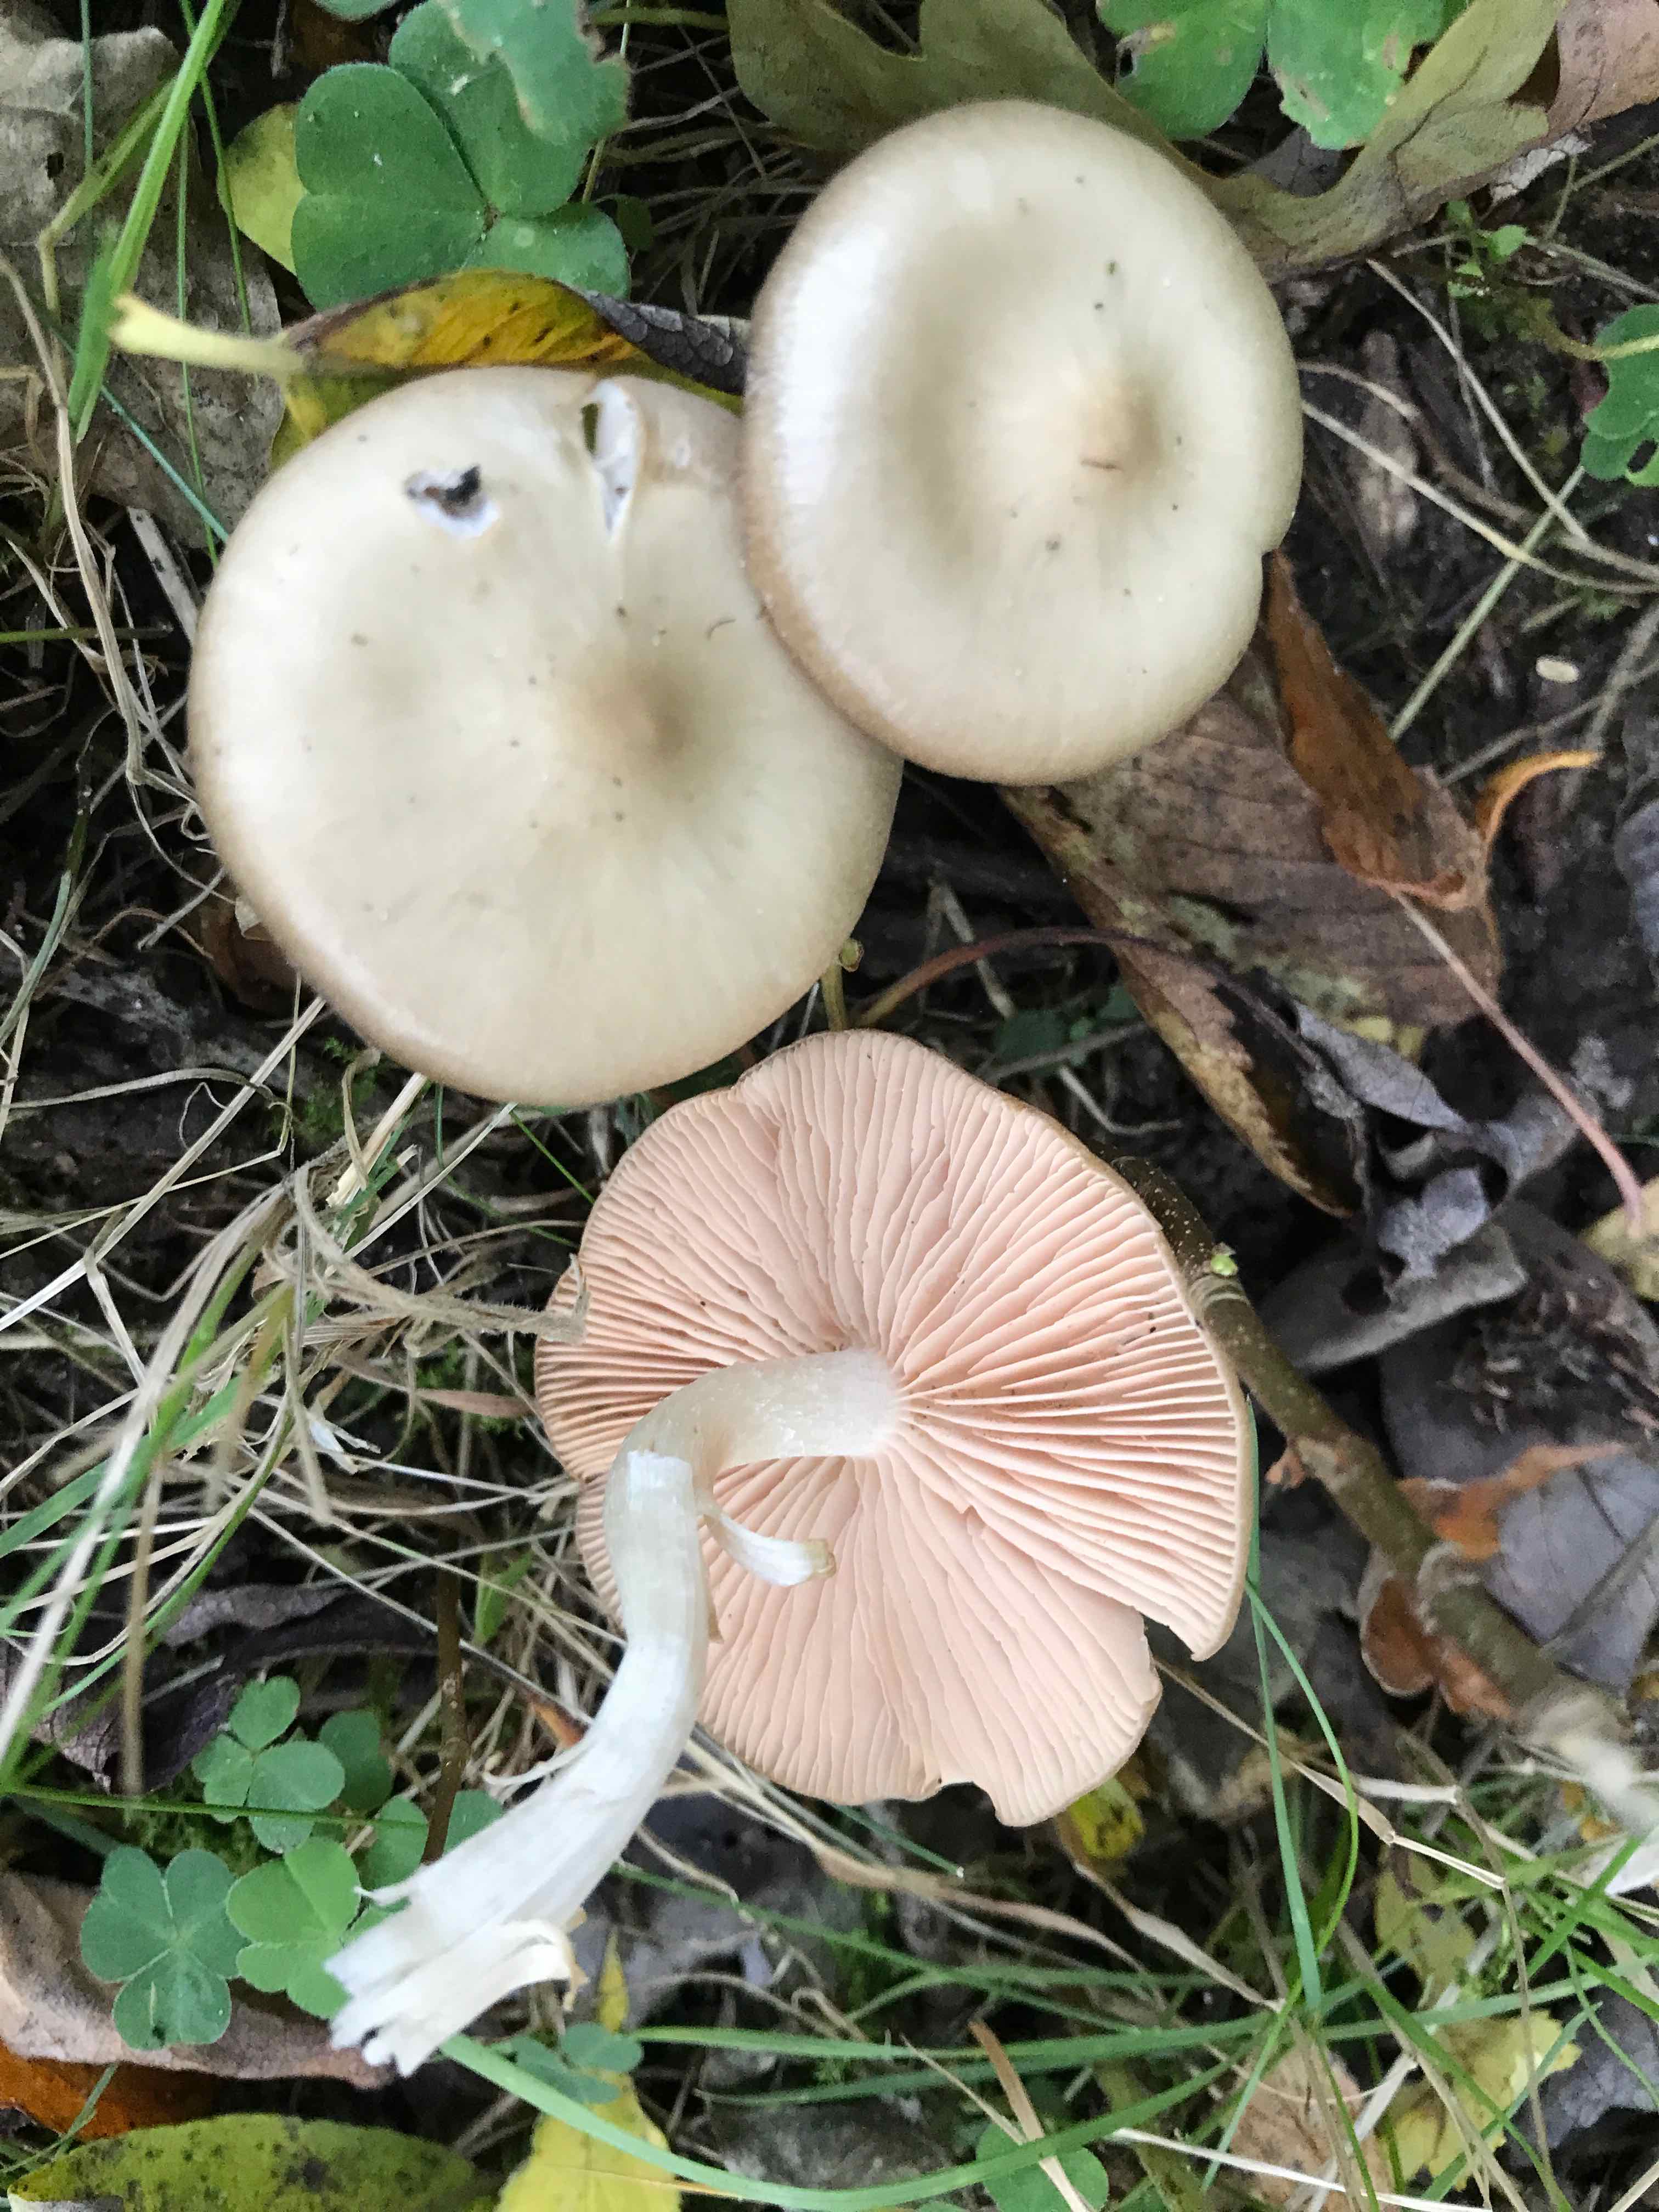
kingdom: Fungi
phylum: Basidiomycota
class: Agaricomycetes
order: Agaricales
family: Entolomataceae
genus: Entoloma
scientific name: Entoloma rhodopolium
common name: skov-rødblad
